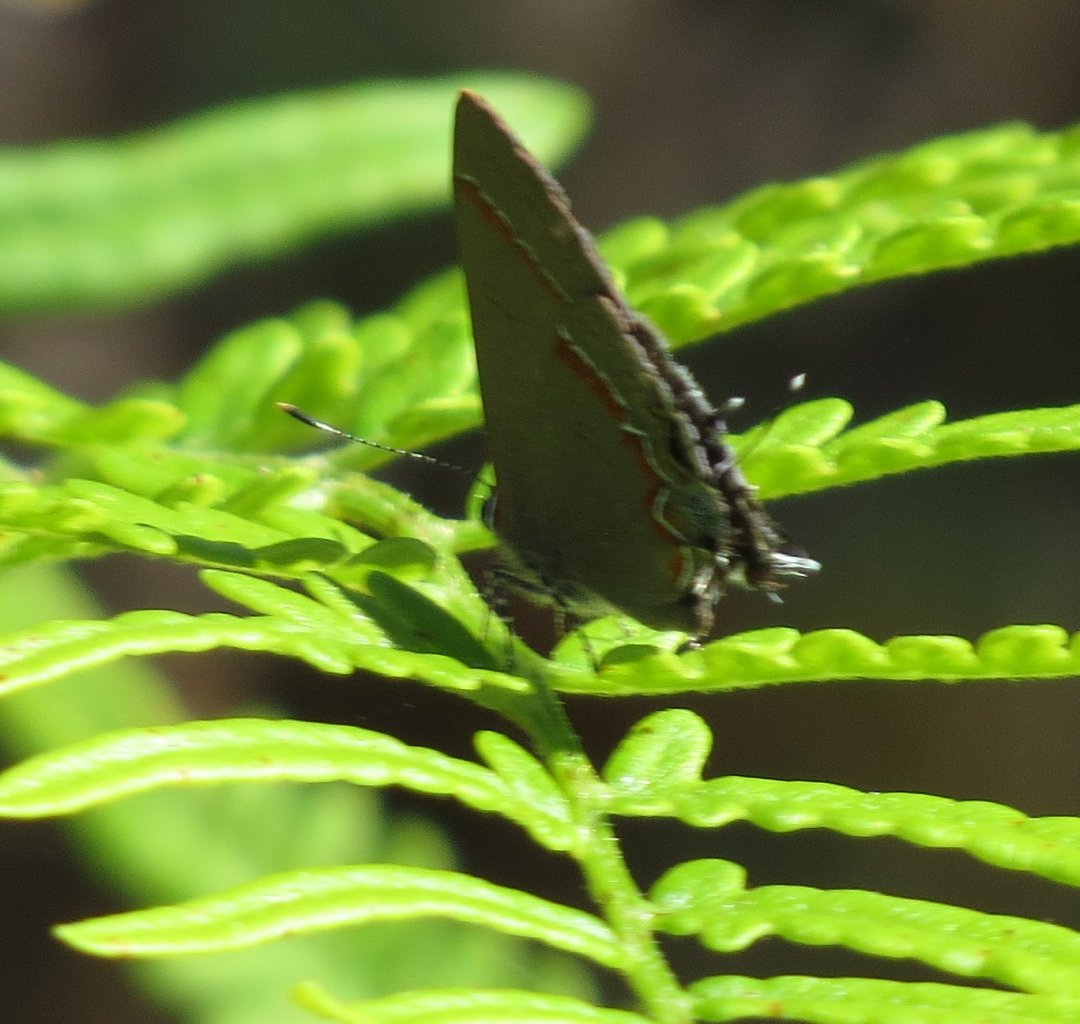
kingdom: Animalia
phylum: Arthropoda
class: Insecta
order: Lepidoptera
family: Lycaenidae
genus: Calycopis
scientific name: Calycopis cecrops
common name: Red-banded Hairstreak
